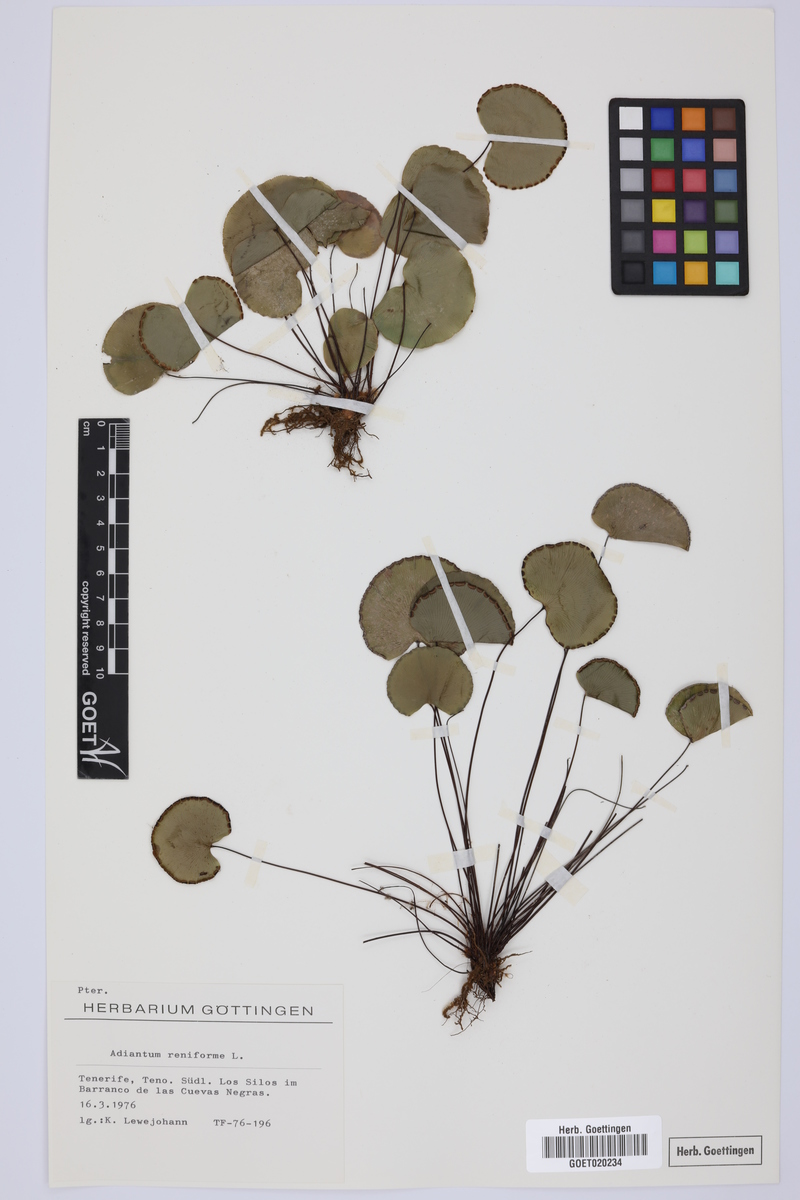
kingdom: Plantae
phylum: Tracheophyta
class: Polypodiopsida
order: Polypodiales
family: Pteridaceae
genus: Adiantum
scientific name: Adiantum reniforme
